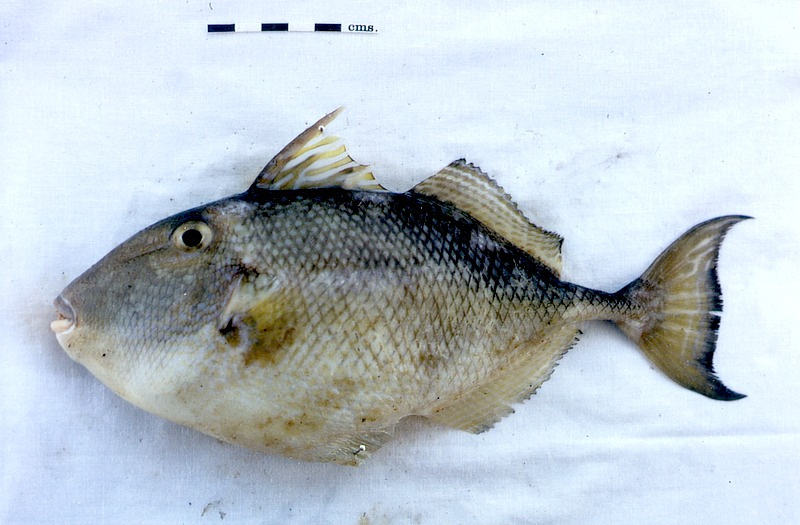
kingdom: Animalia
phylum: Chordata
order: Tetraodontiformes
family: Balistidae
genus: Abalistes
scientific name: Abalistes stellatus
